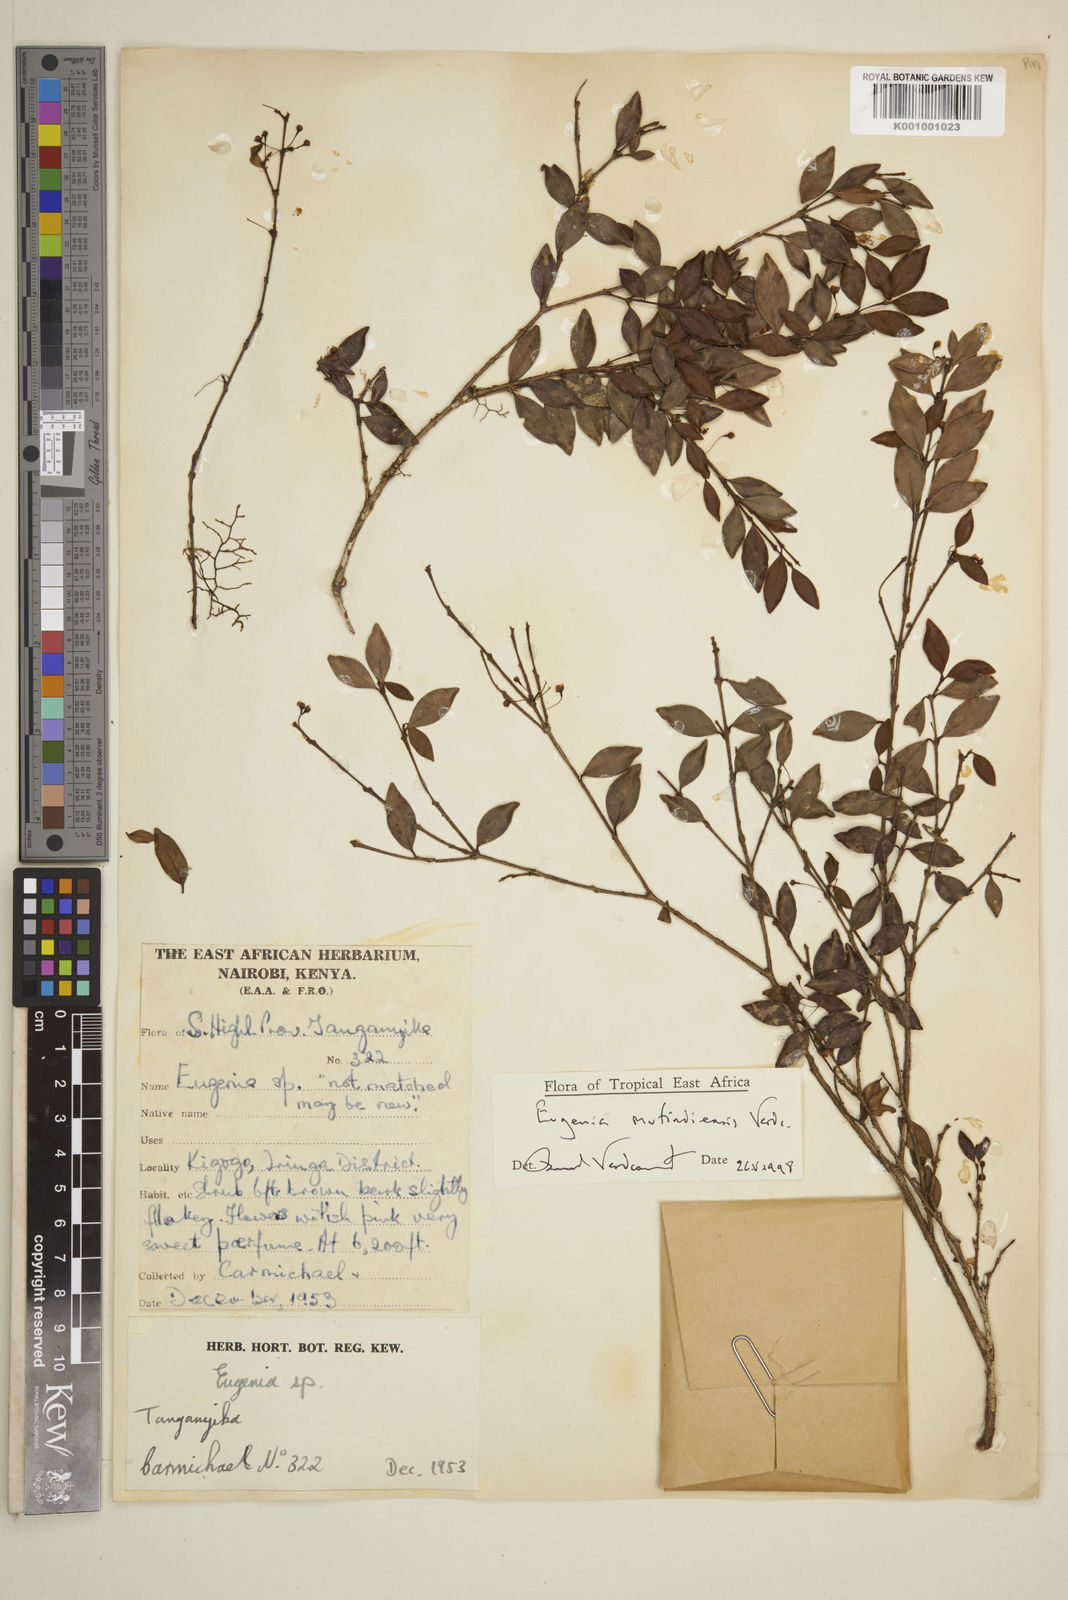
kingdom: Plantae
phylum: Tracheophyta
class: Magnoliopsida
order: Myrtales
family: Myrtaceae
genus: Eugenia
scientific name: Eugenia mufindiensis
